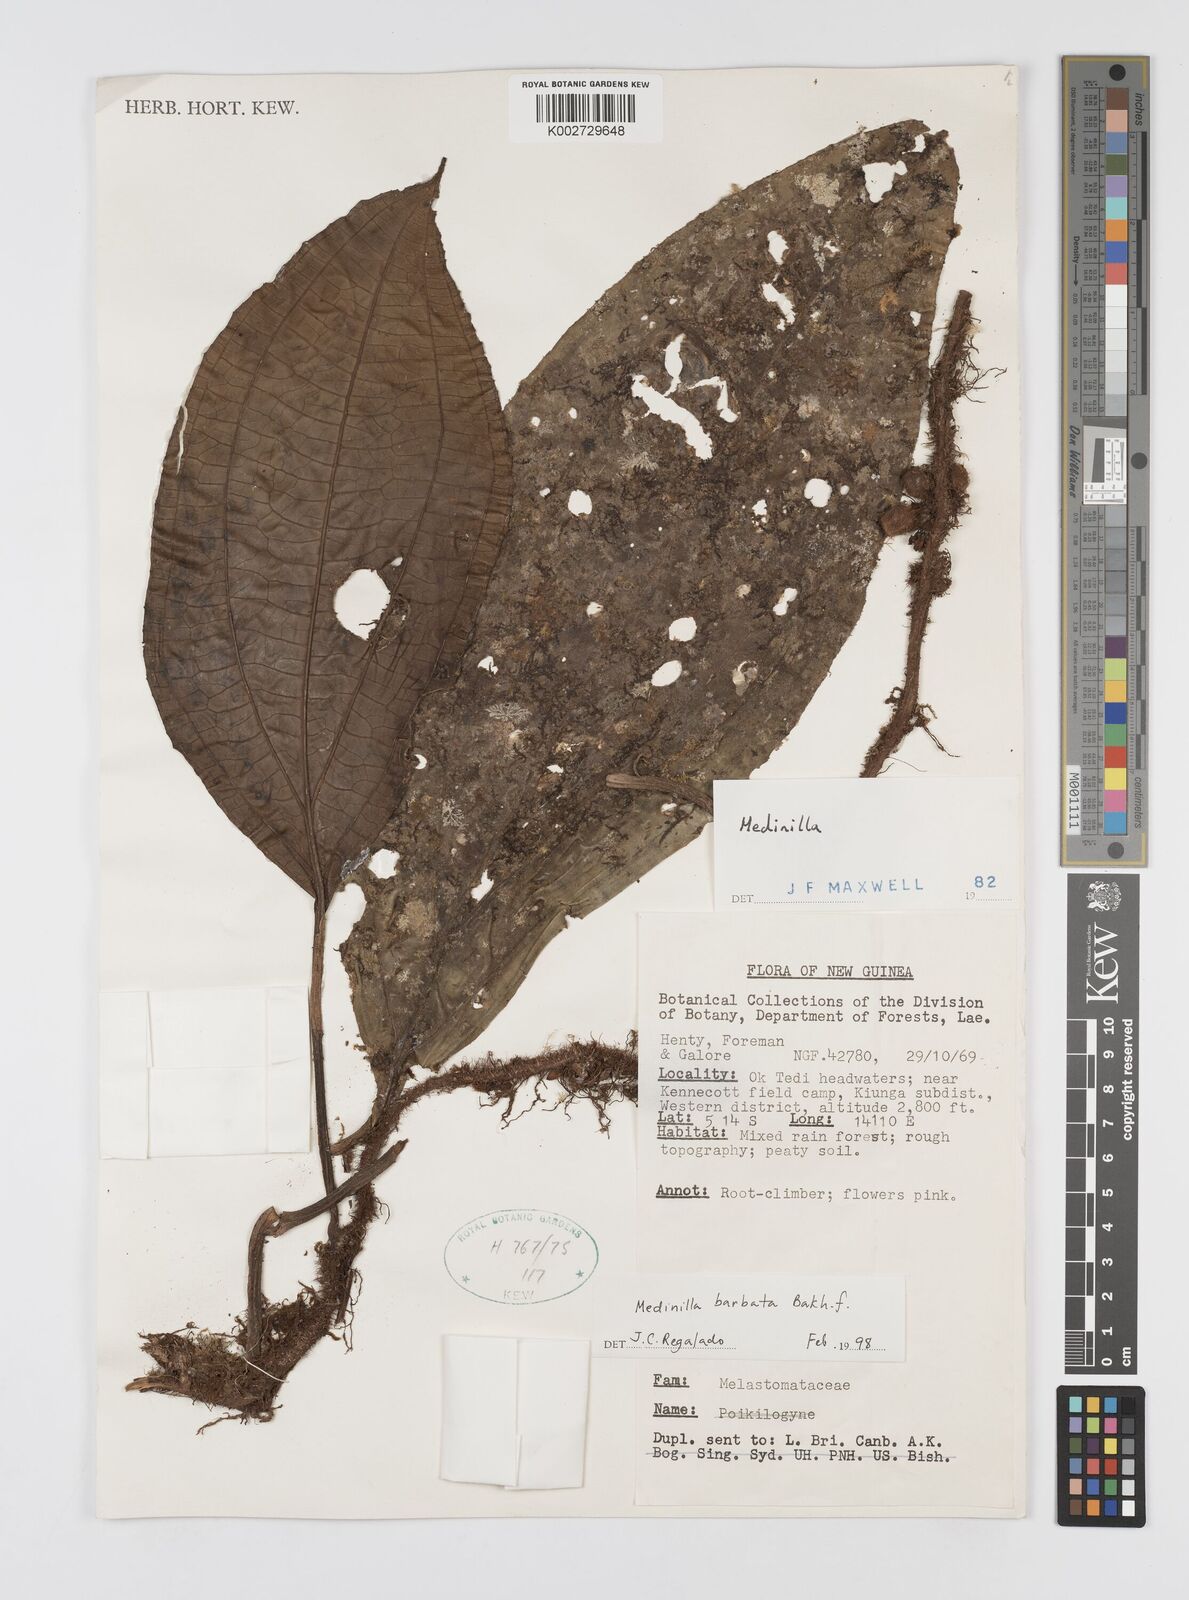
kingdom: Plantae
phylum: Tracheophyta
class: Magnoliopsida
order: Myrtales
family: Melastomataceae
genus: Heteroblemma
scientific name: Heteroblemma barbatum
